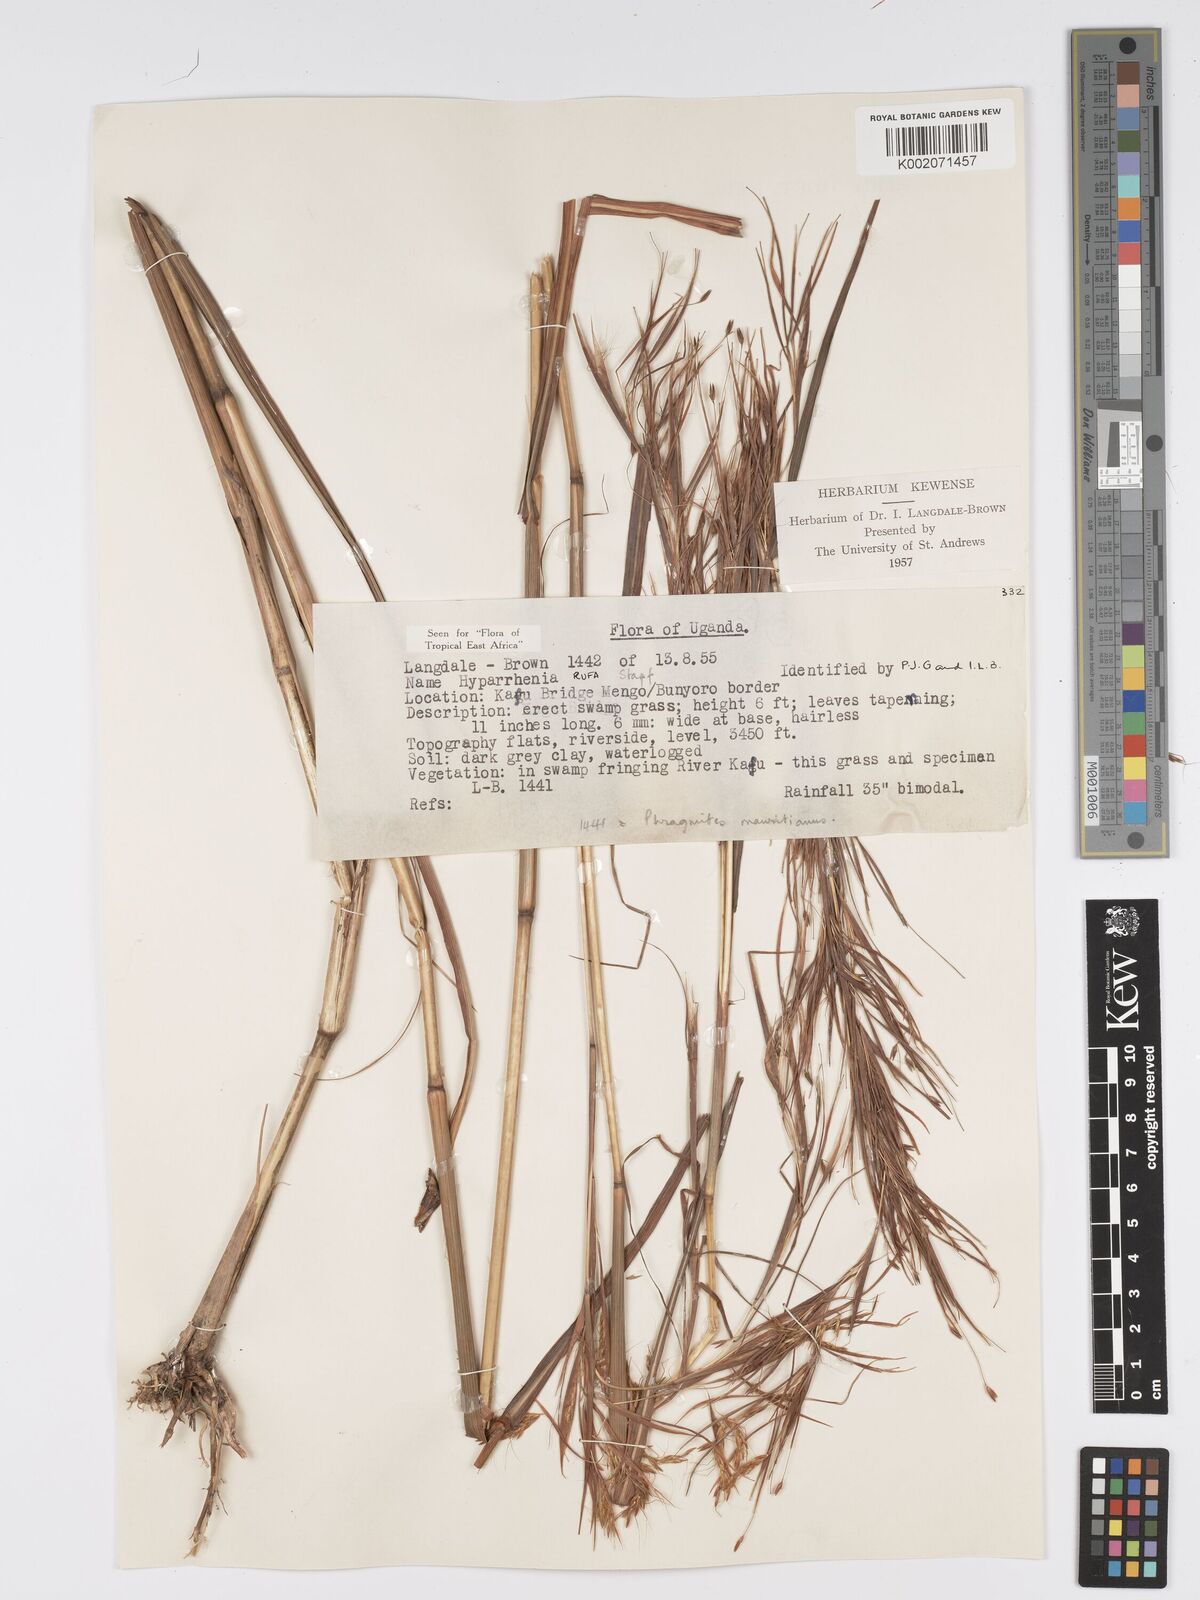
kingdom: Plantae
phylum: Tracheophyta
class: Liliopsida
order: Poales
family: Poaceae
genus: Hyparrhenia
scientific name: Hyparrhenia rufa
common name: Jaraguagrass
